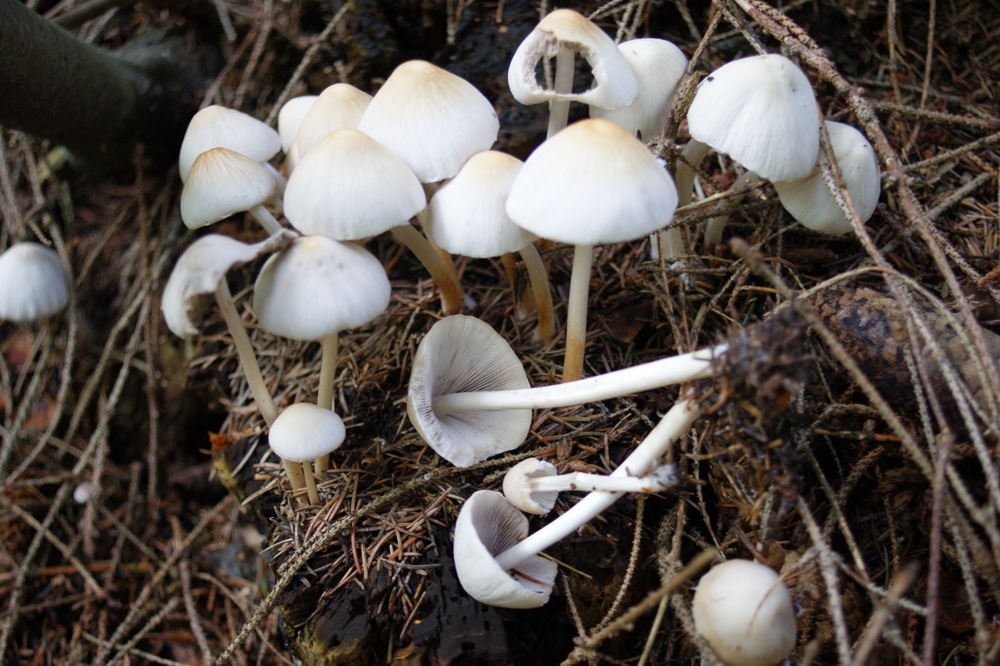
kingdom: Fungi
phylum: Basidiomycota
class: Agaricomycetes
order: Agaricales
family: Psathyrellaceae
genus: Candolleomyces
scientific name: Candolleomyces candolleanus
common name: Candolles mørkhat
